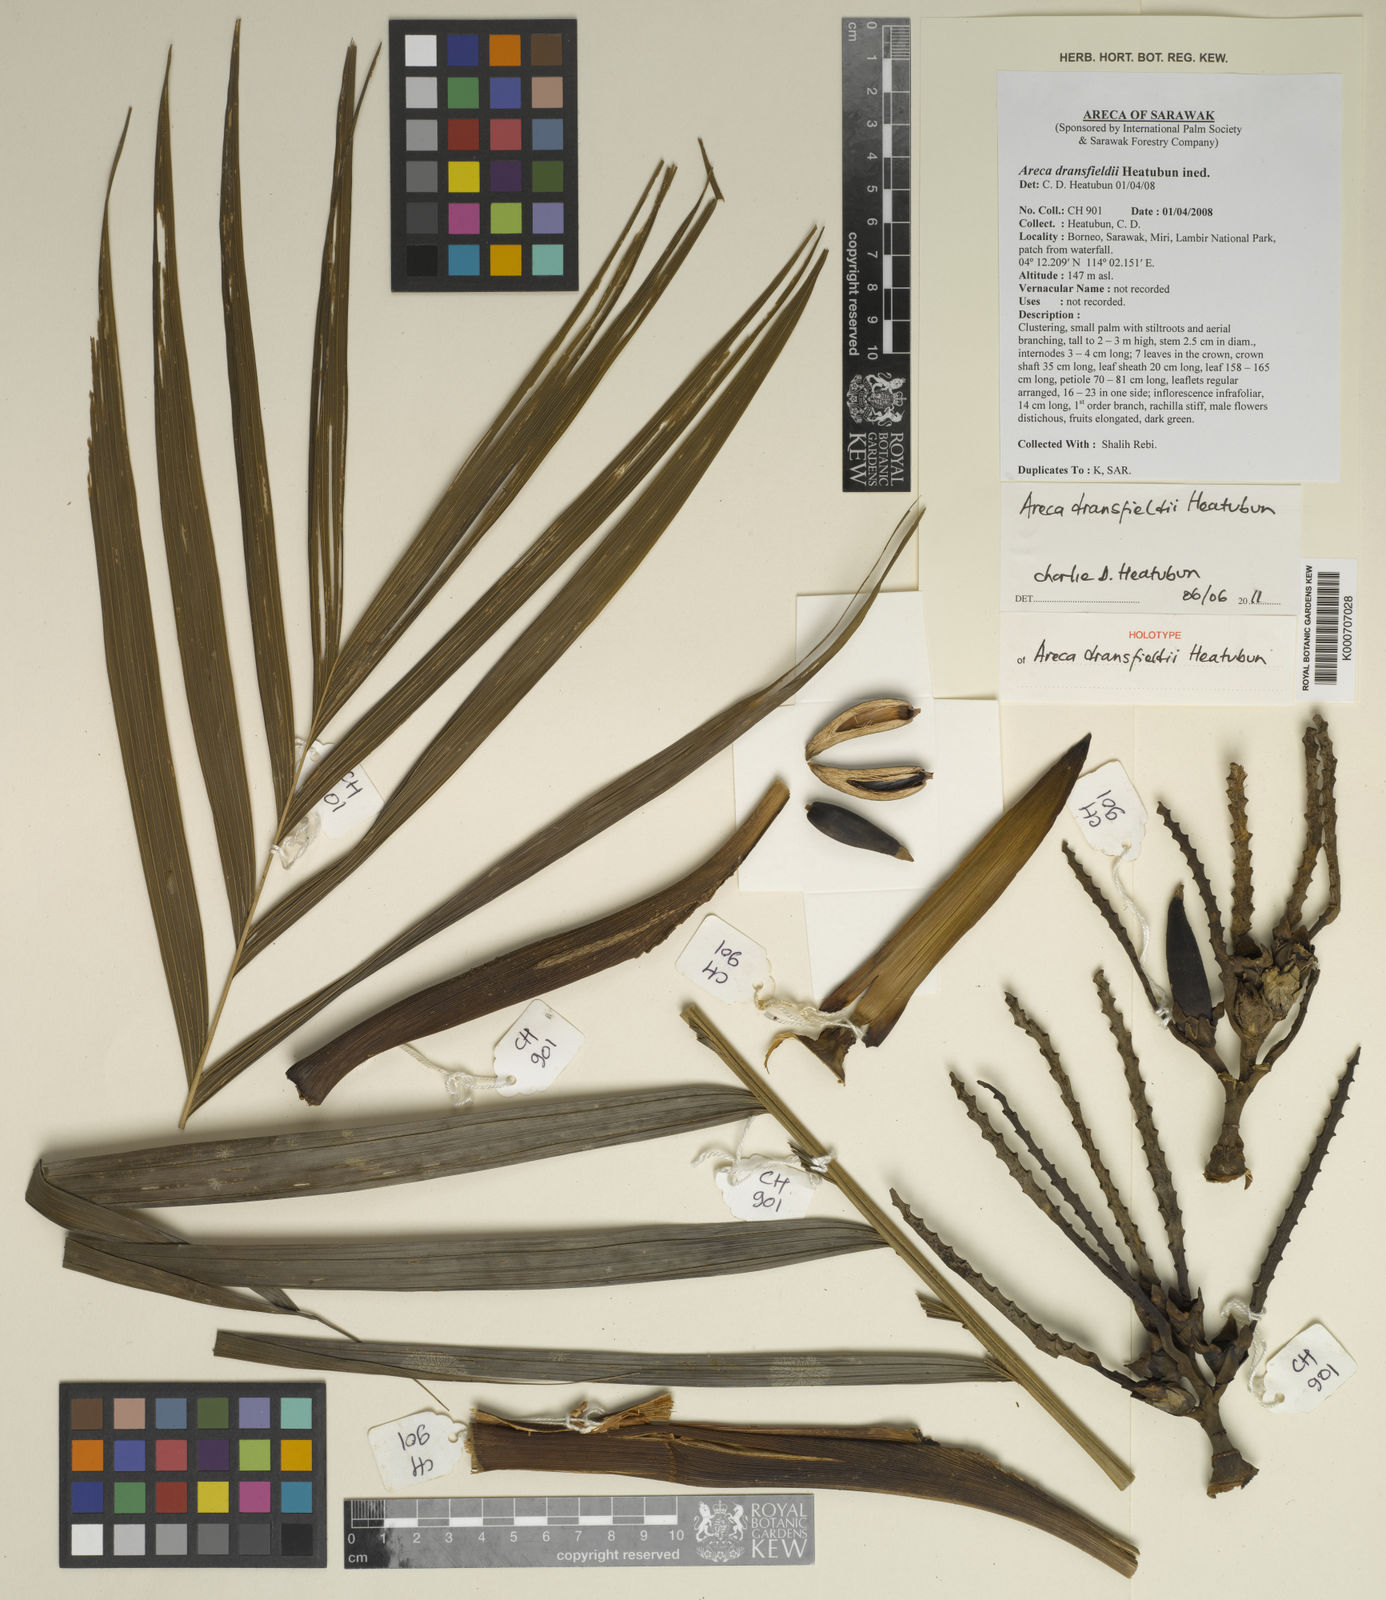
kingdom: Plantae
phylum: Tracheophyta
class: Liliopsida
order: Arecales
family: Arecaceae
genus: Areca
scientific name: Areca dransfieldii
